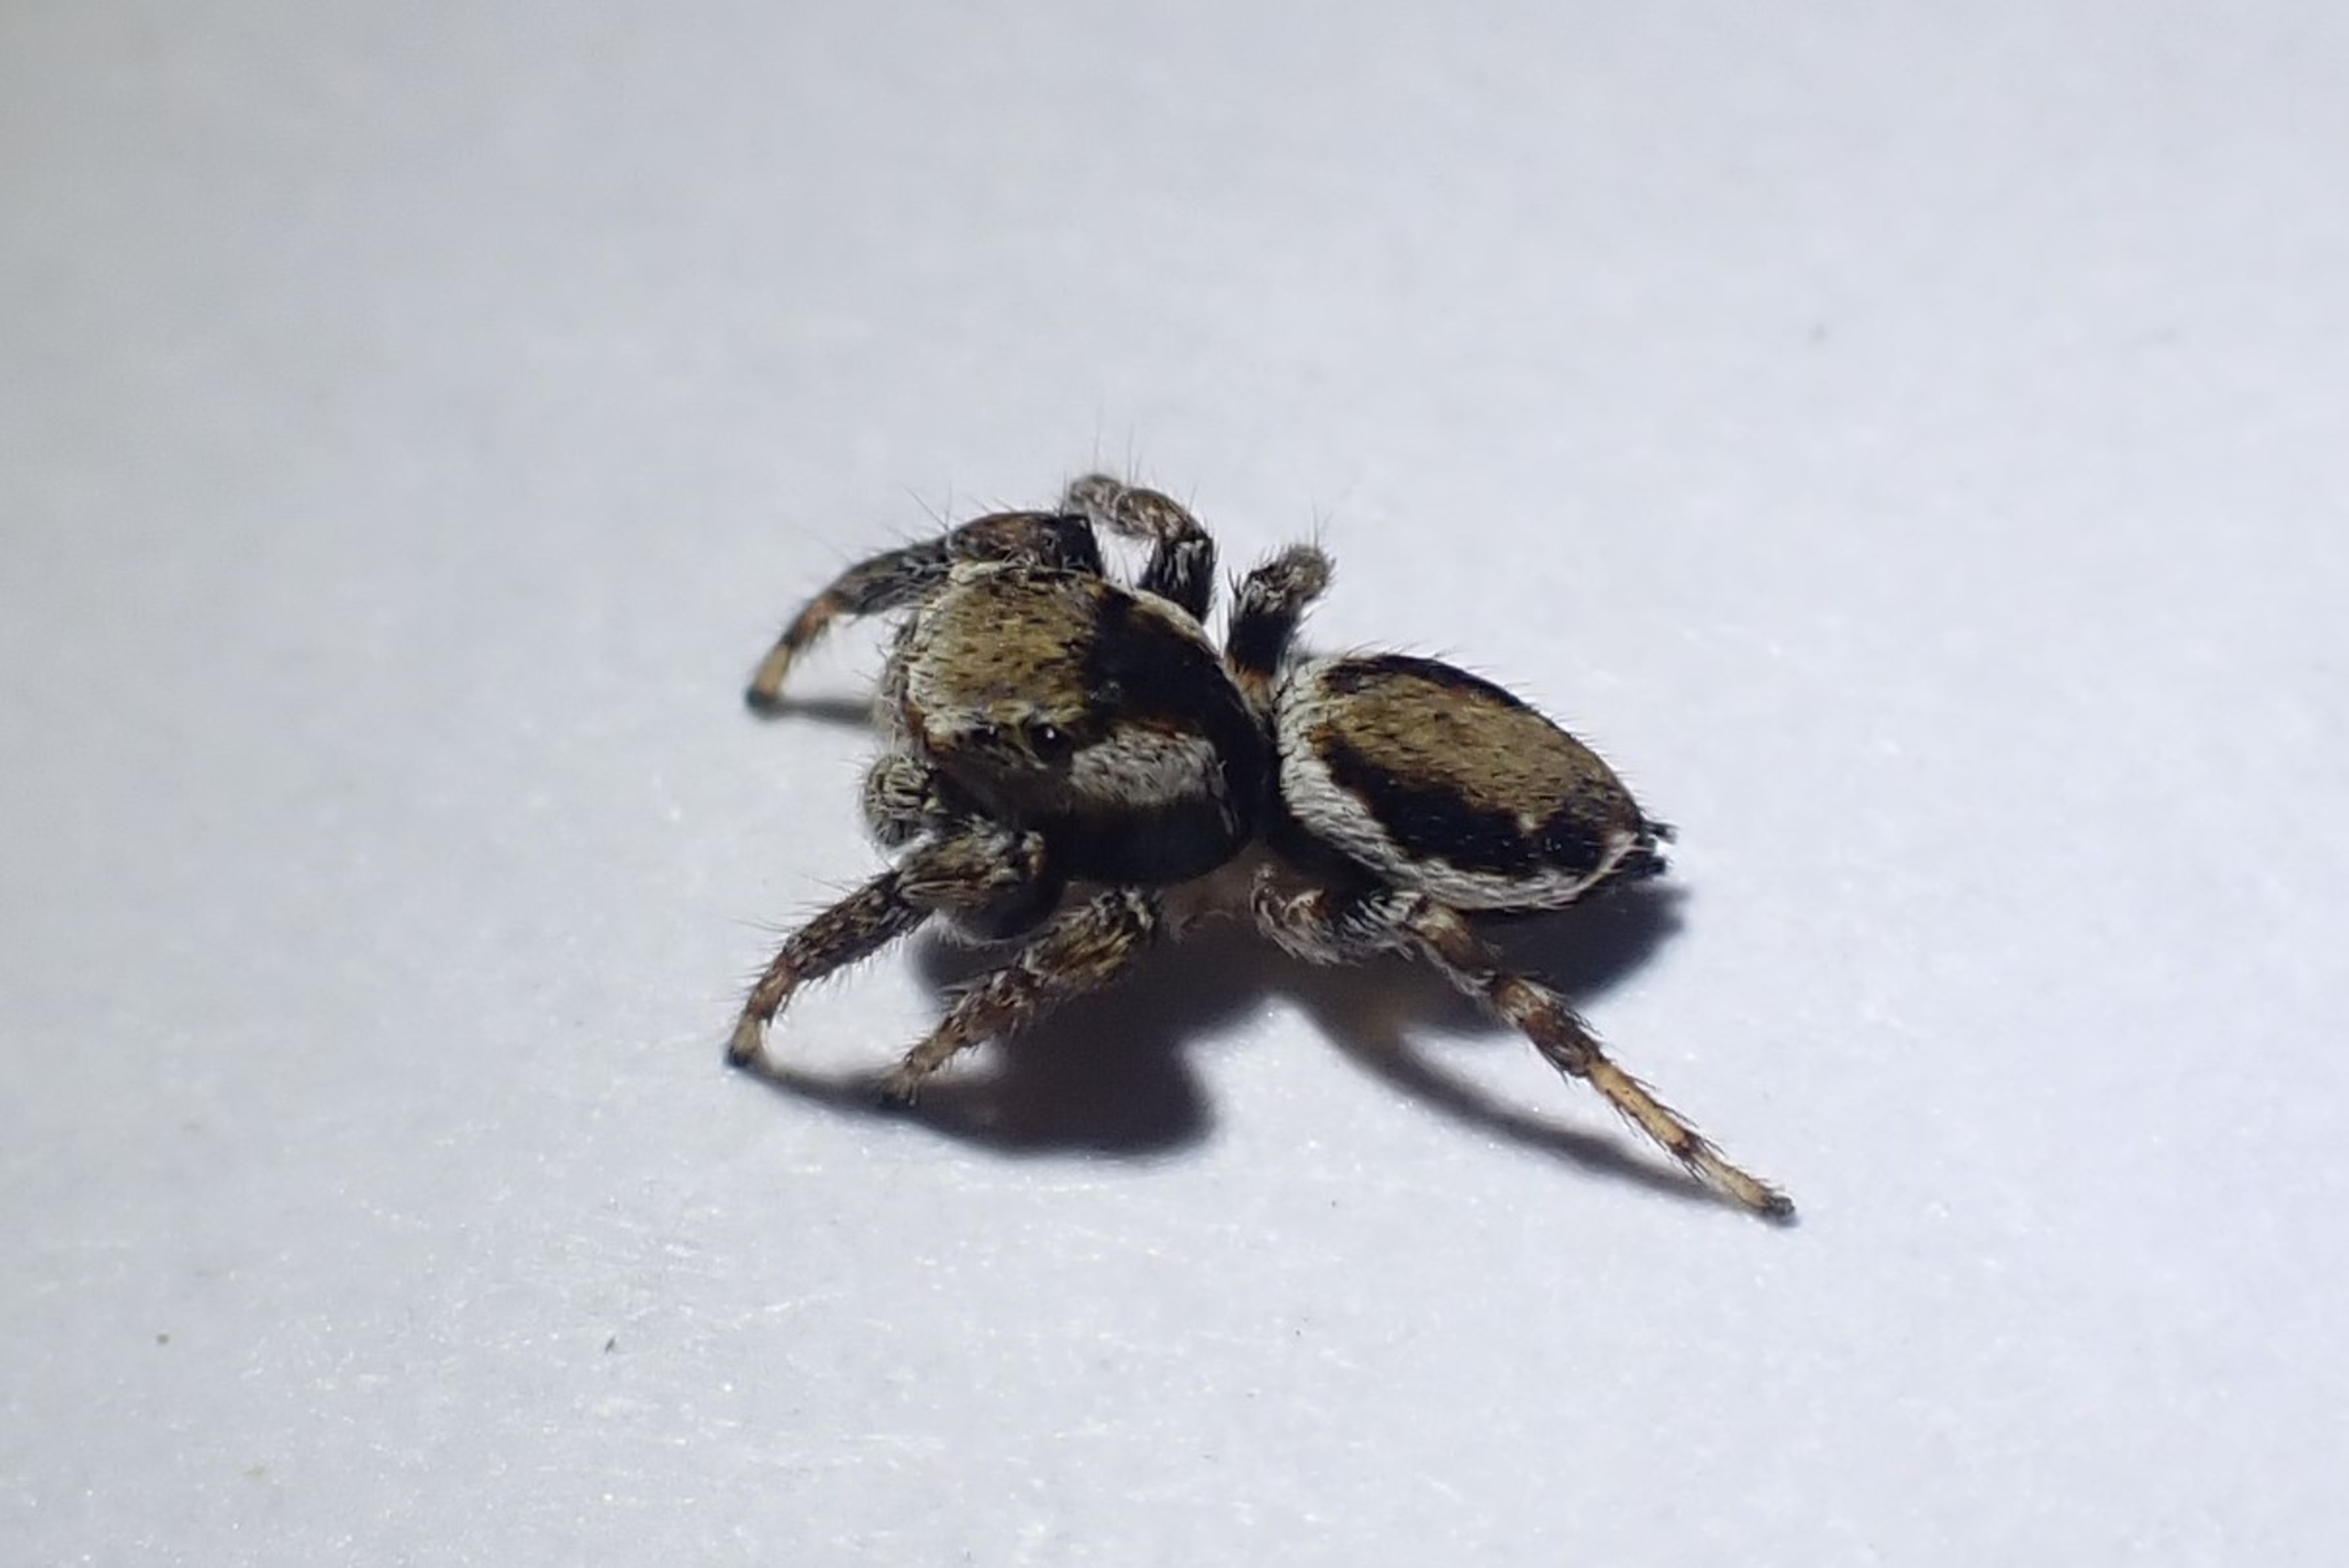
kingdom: Animalia
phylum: Arthropoda
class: Arachnida
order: Araneae
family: Salticidae
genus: Evarcha
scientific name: Evarcha falcata
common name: Broget springedderkop
